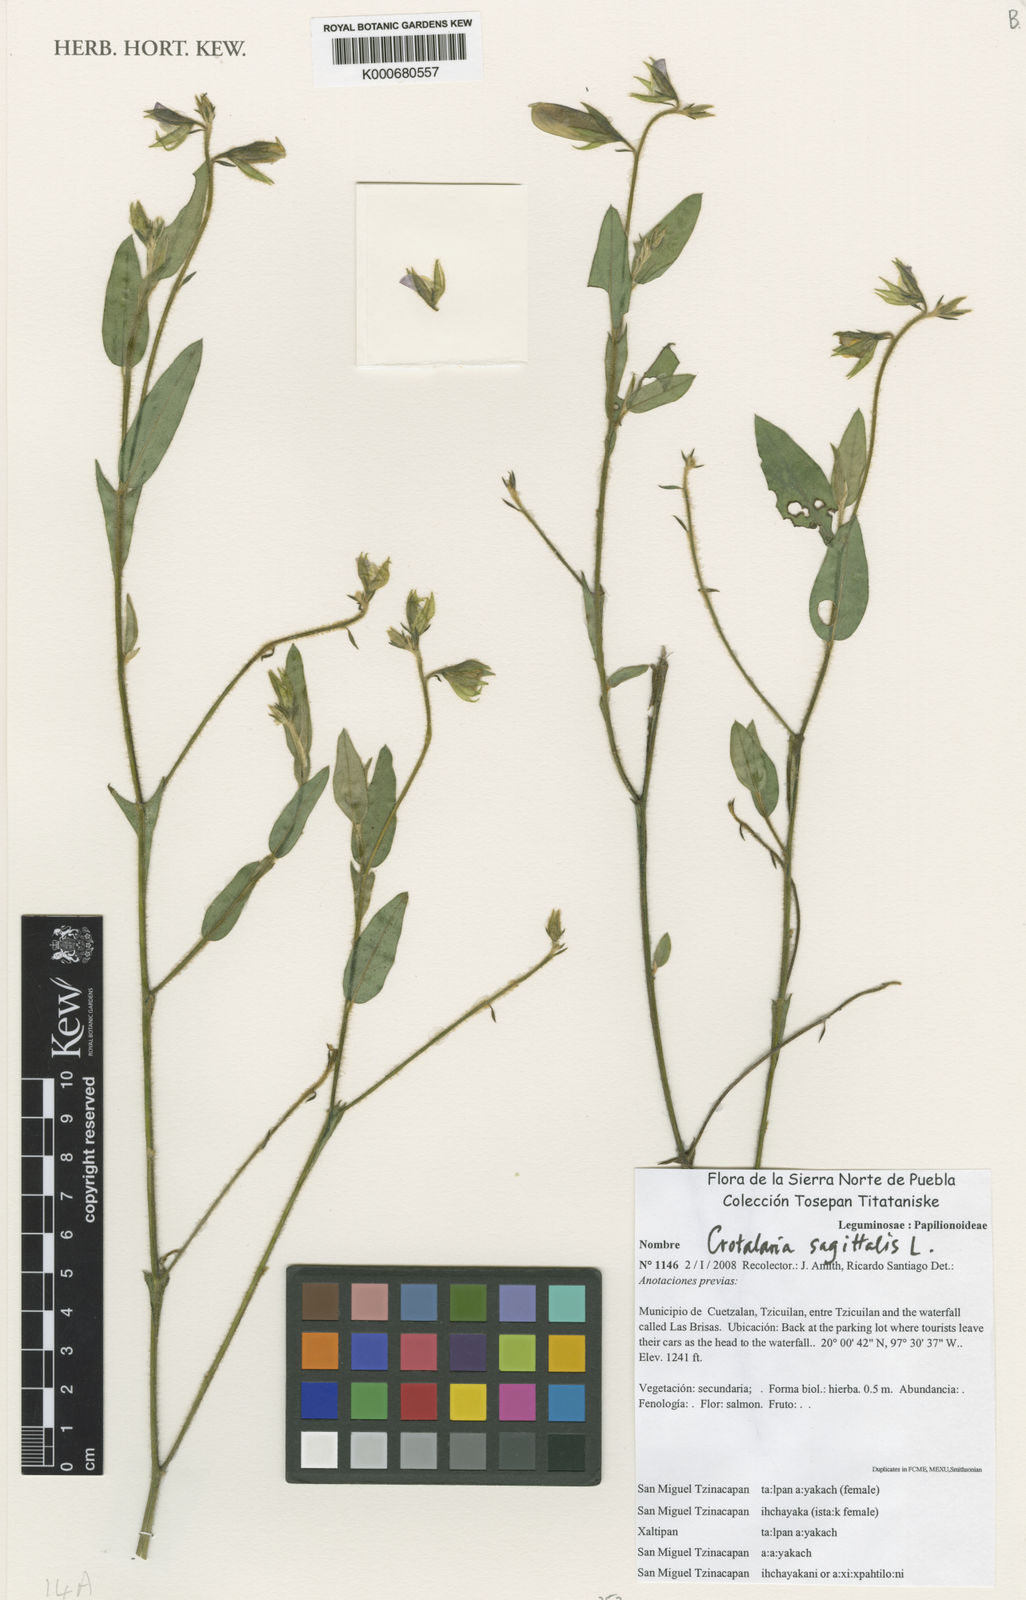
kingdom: Plantae
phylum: Tracheophyta
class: Magnoliopsida
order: Fabales
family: Fabaceae
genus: Crotalaria
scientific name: Crotalaria sagittalis
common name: Arrowhead rattlebox
